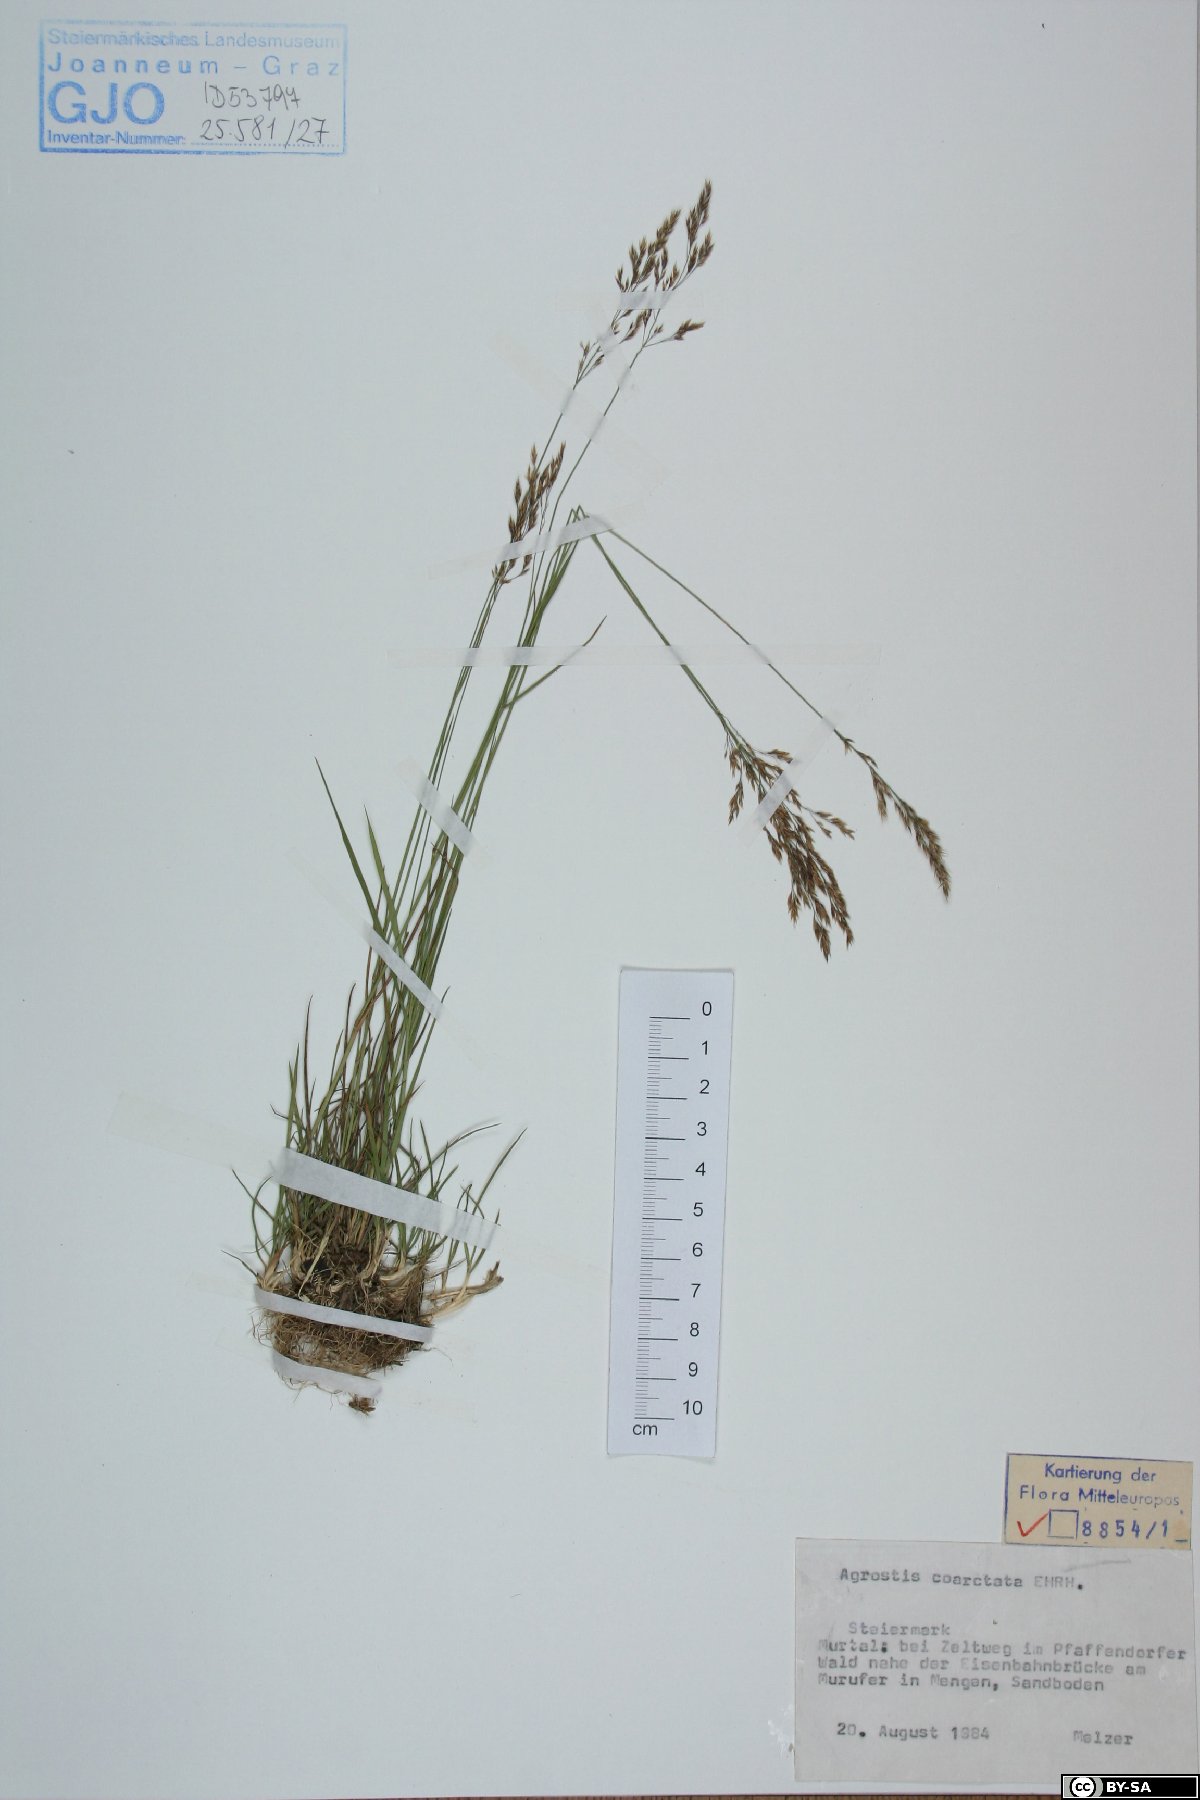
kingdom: Plantae
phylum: Tracheophyta
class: Liliopsida
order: Poales
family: Poaceae
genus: Agrostis
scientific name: Agrostis vinealis
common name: Brown bent
